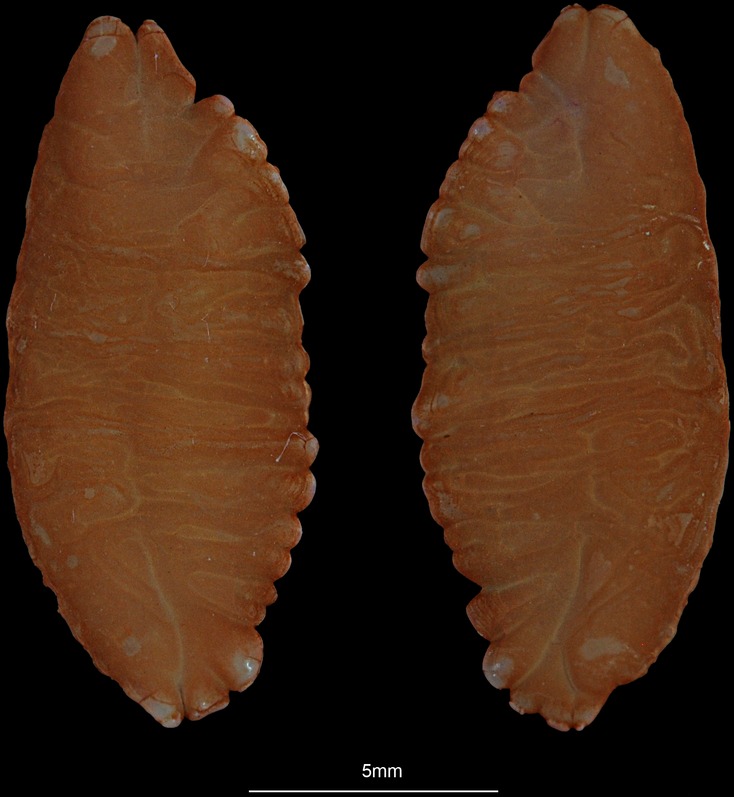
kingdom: Animalia
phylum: Chordata
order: Gadiformes
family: Lotidae
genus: Molva
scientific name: Molva dypterygia
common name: Blue ling
